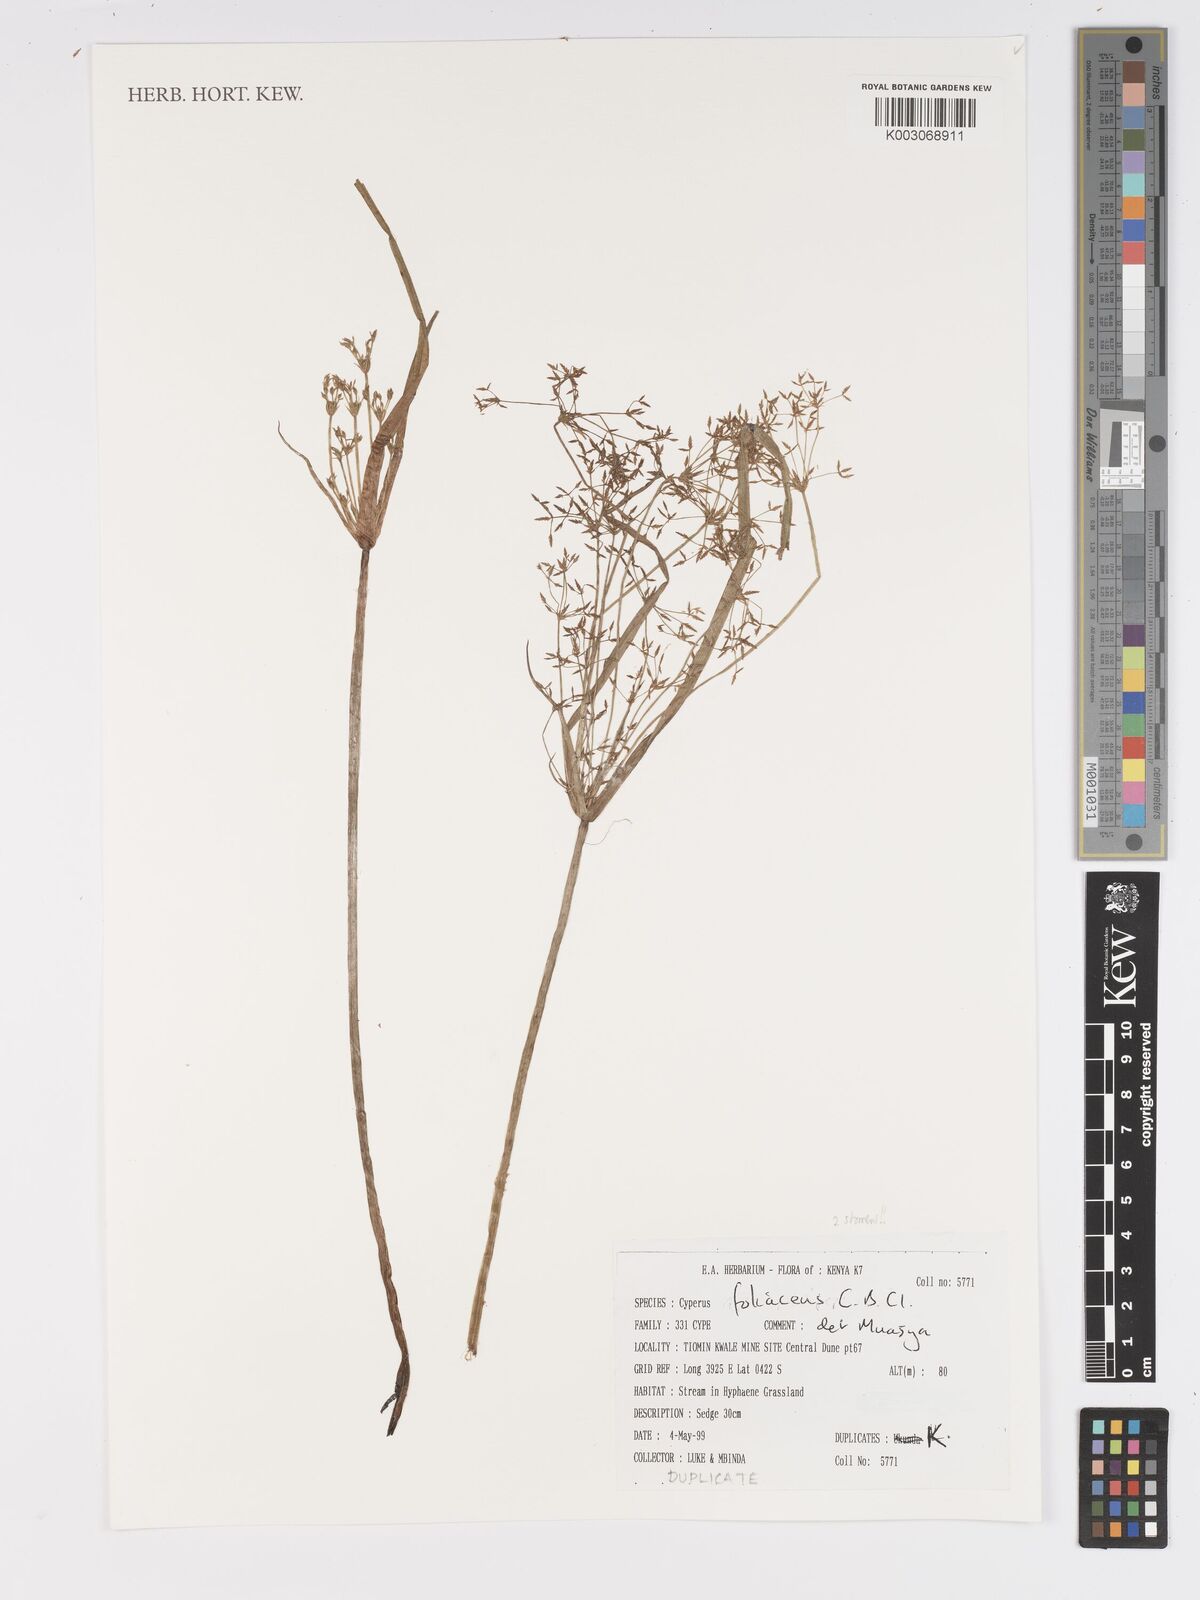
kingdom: Plantae
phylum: Tracheophyta
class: Liliopsida
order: Poales
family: Cyperaceae
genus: Cyperus
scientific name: Cyperus foliaceus
